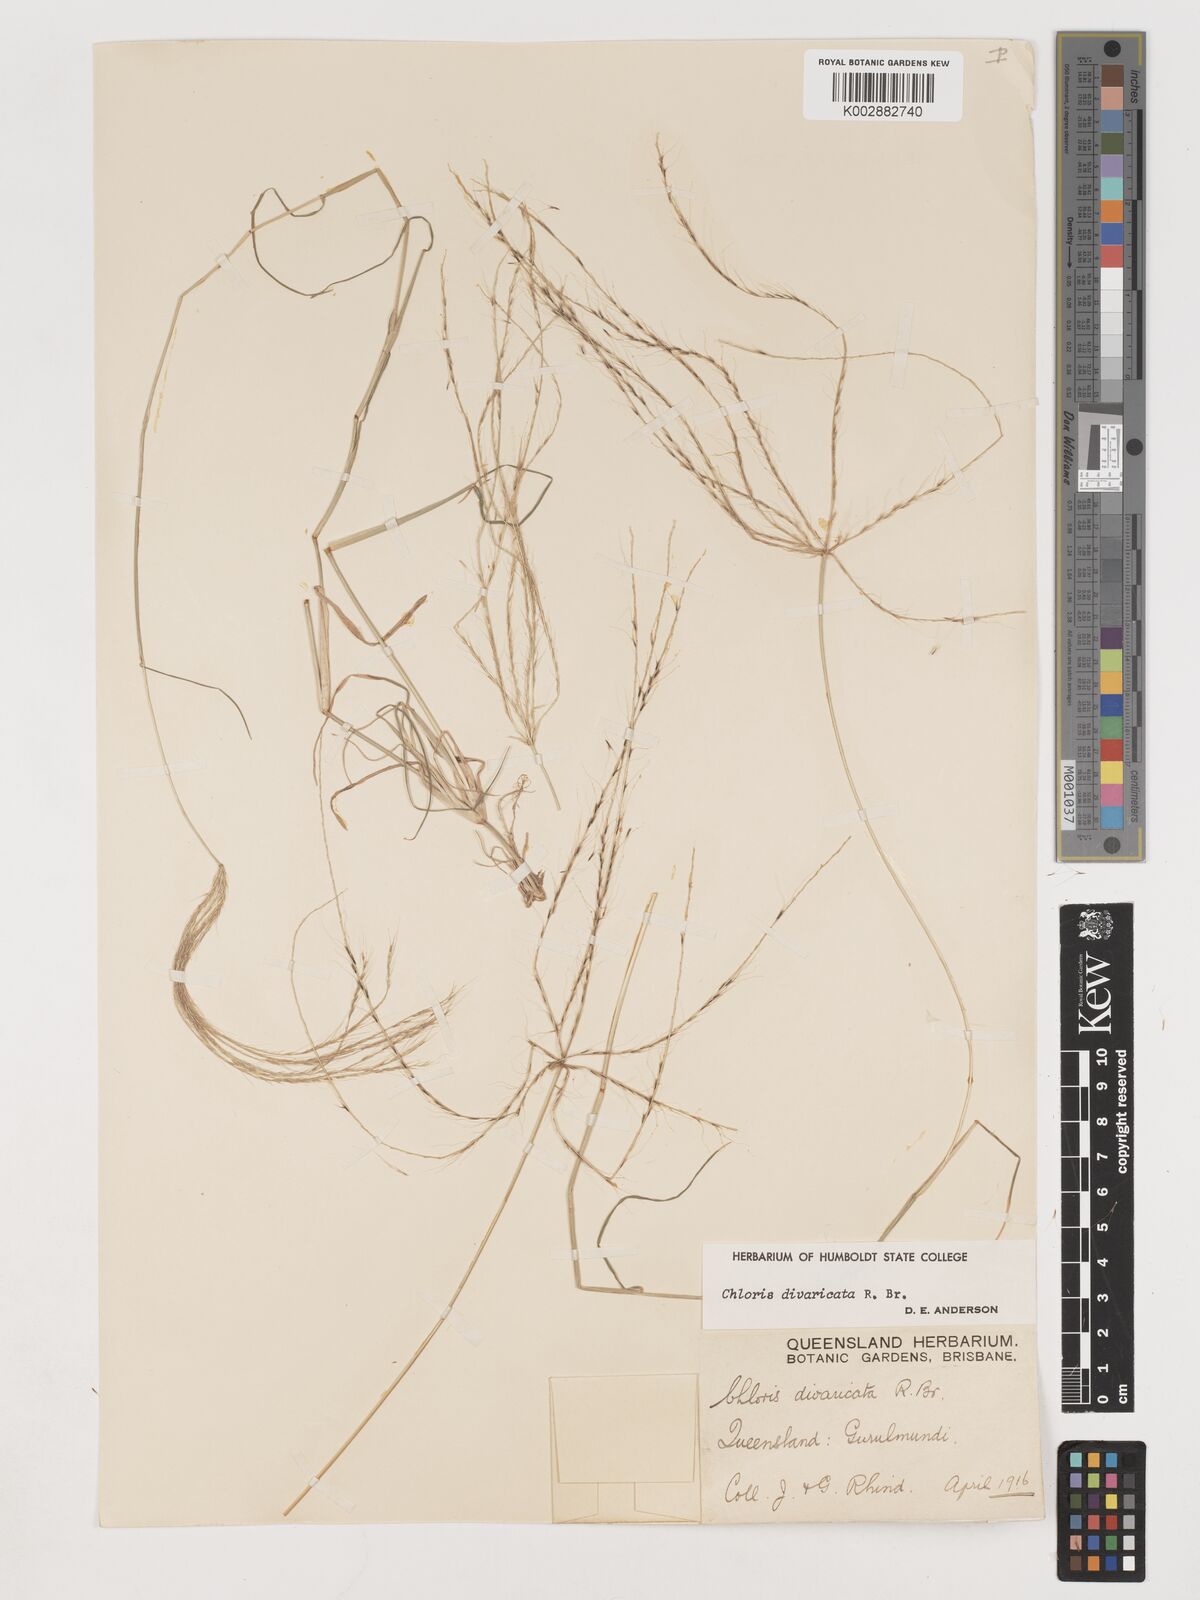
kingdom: Plantae
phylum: Tracheophyta
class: Liliopsida
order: Poales
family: Poaceae
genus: Chloris
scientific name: Chloris divaricata
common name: Spreading windmill grass
